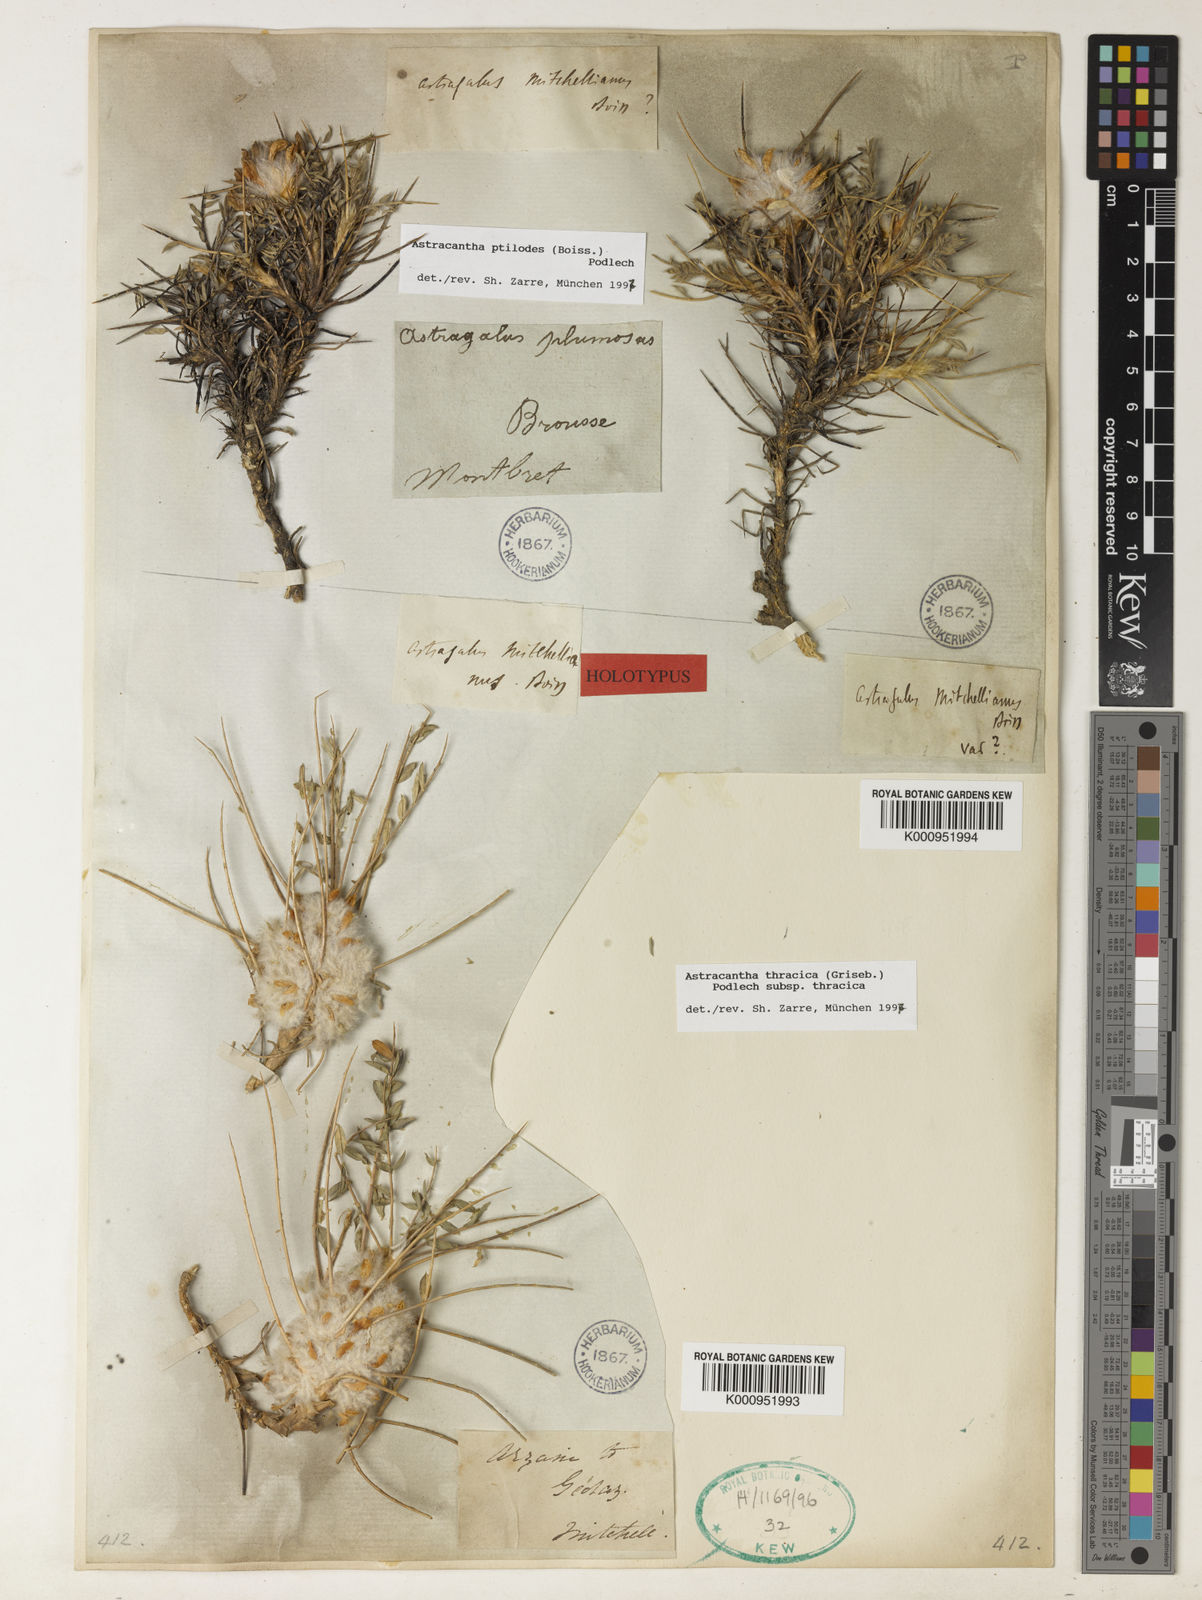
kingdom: Plantae
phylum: Tracheophyta
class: Magnoliopsida
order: Fabales
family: Fabaceae
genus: Astragalus
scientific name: Astragalus thracicus
